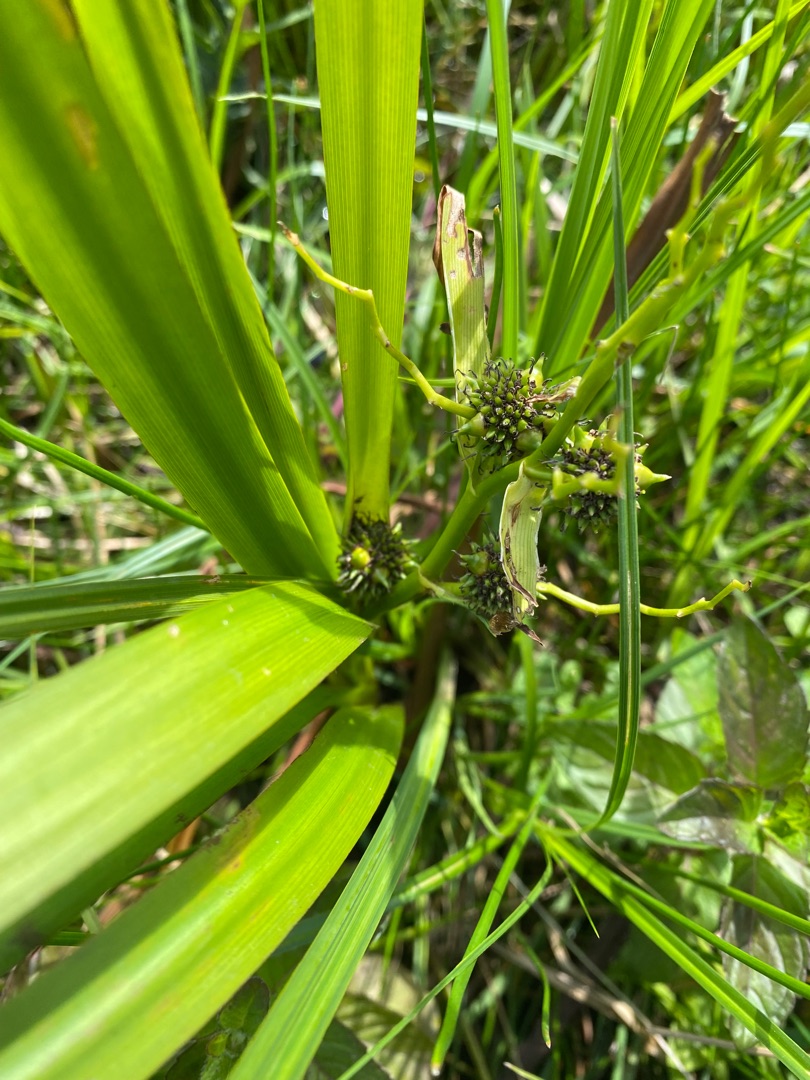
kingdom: Plantae
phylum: Tracheophyta
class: Liliopsida
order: Poales
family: Typhaceae
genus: Sparganium
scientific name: Sparganium erectum
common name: Grenet pindsvineknop
